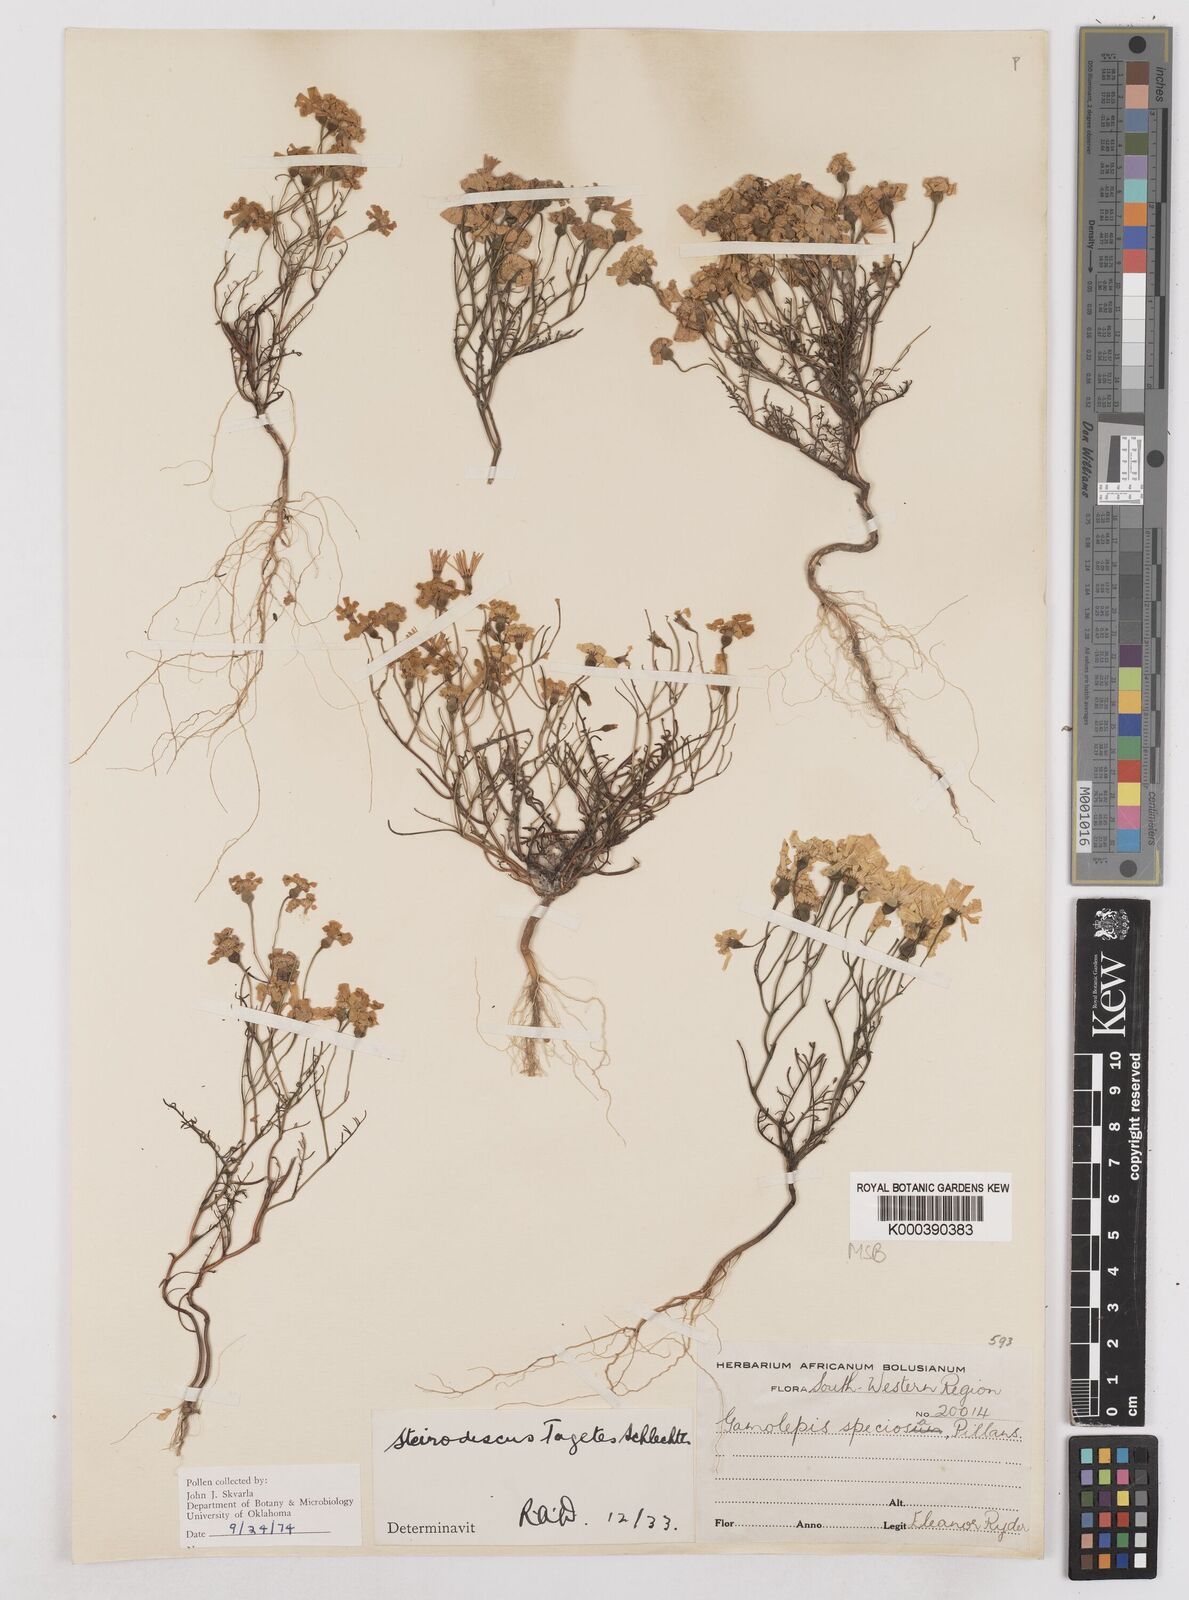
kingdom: Plantae
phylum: Tracheophyta
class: Magnoliopsida
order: Asterales
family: Asteraceae
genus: Steirodiscus
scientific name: Steirodiscus speciosus
